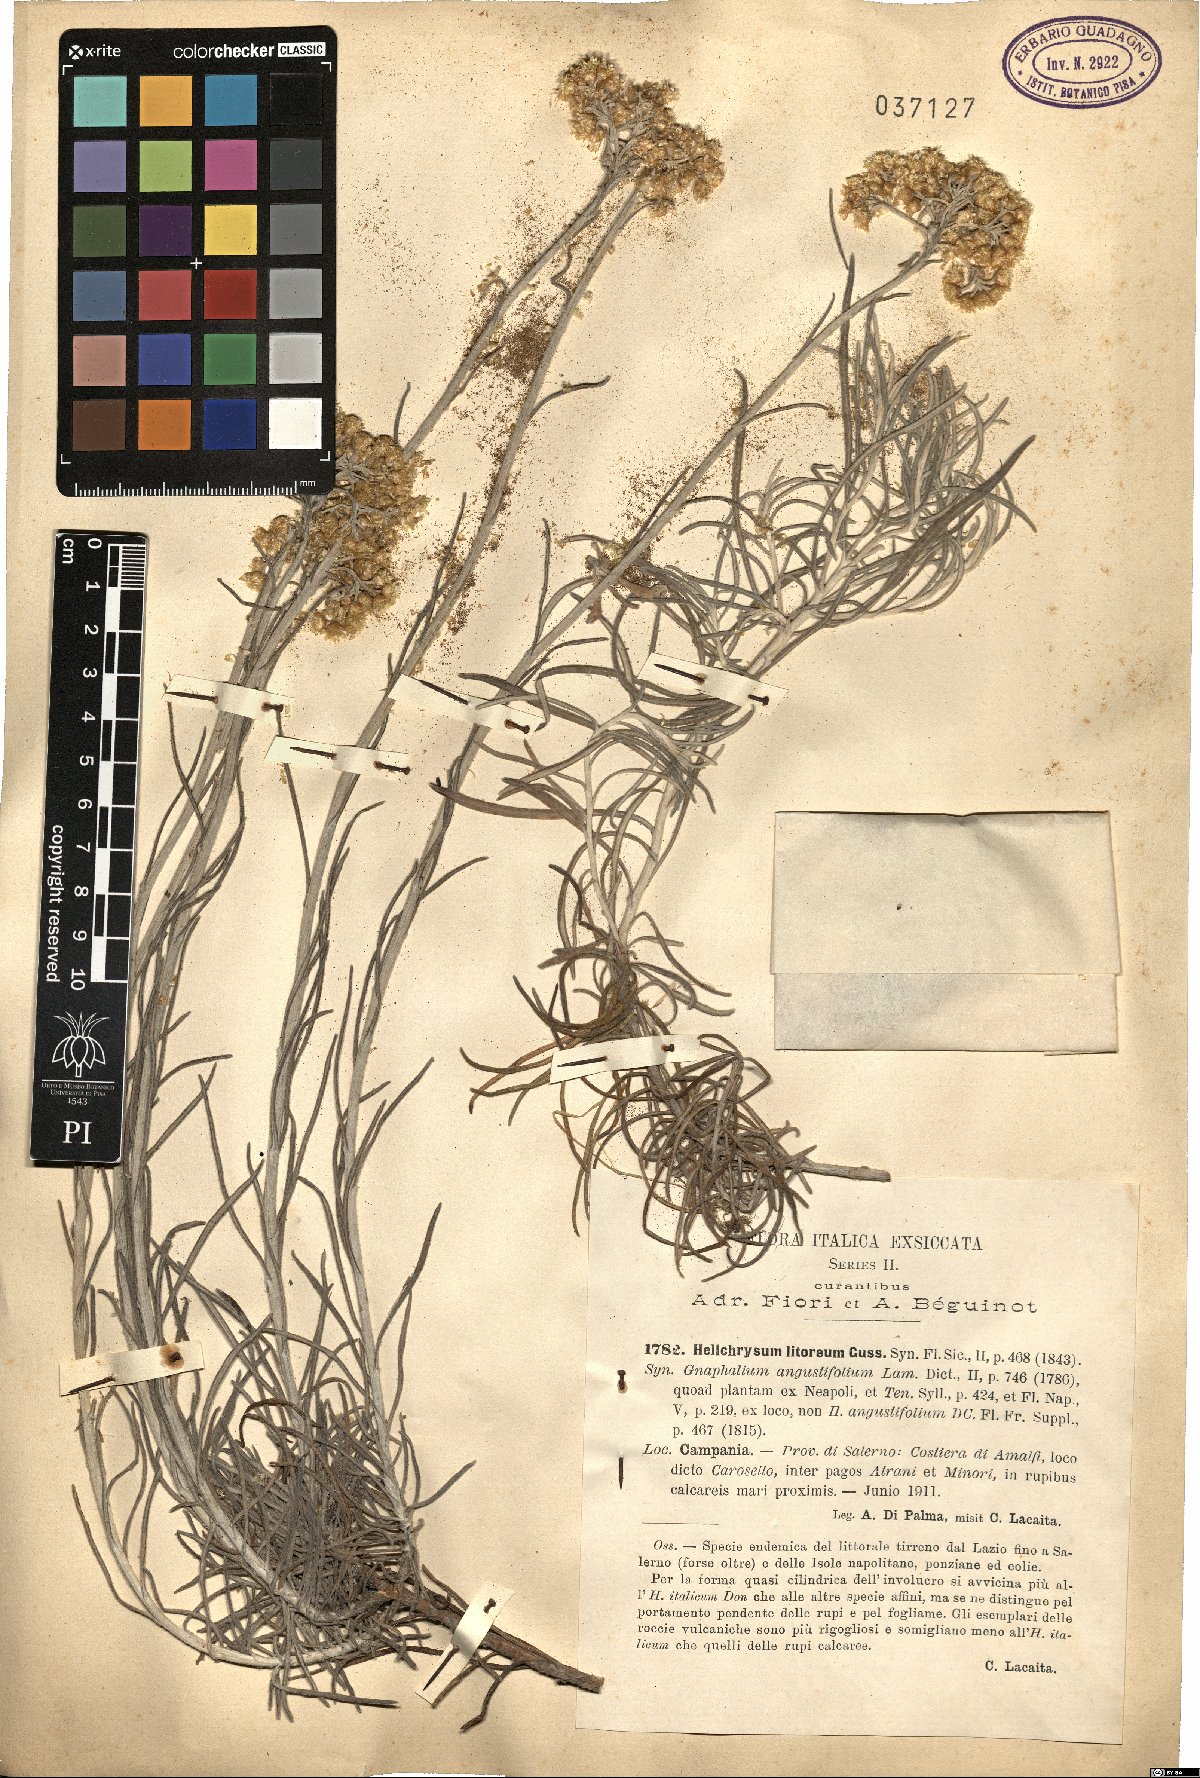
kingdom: Plantae
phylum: Tracheophyta
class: Magnoliopsida
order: Asterales
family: Asteraceae
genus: Helichrysum
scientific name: Helichrysum litoreum
